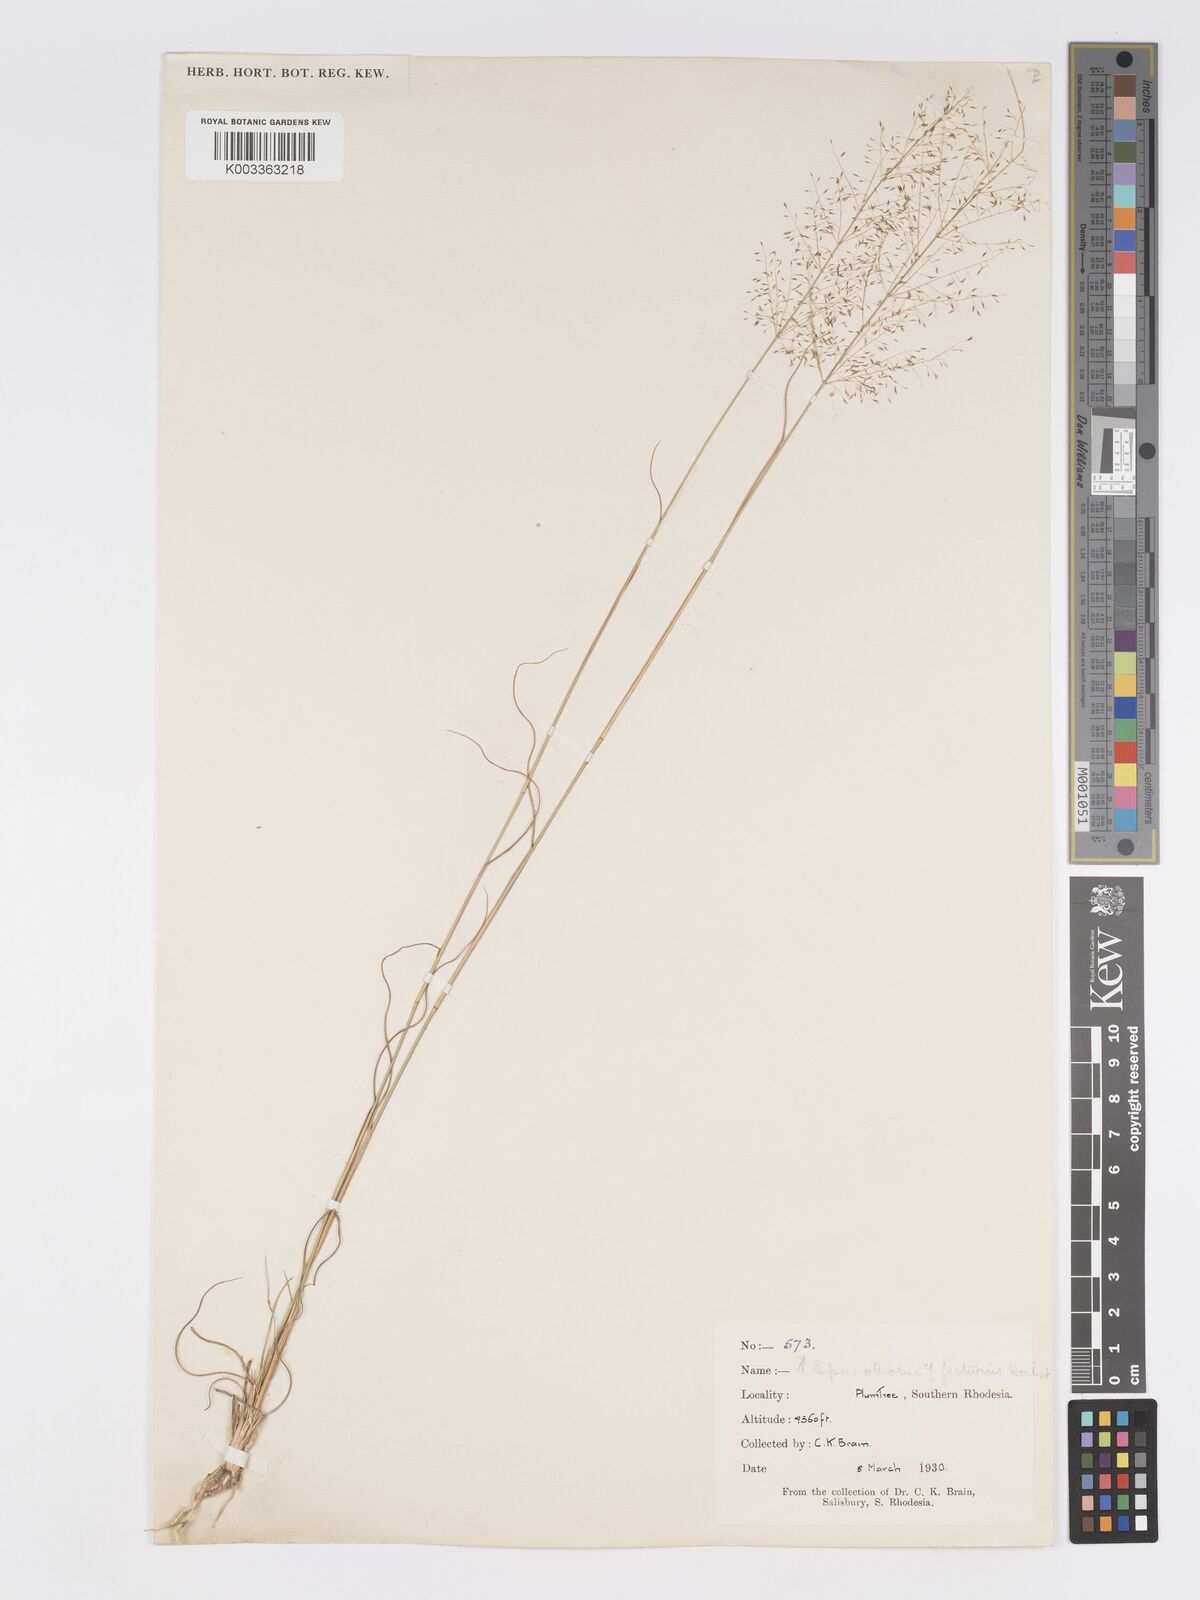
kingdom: Plantae
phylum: Tracheophyta
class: Liliopsida
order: Poales
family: Poaceae
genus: Eragrostis
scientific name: Eragrostis stapfii
